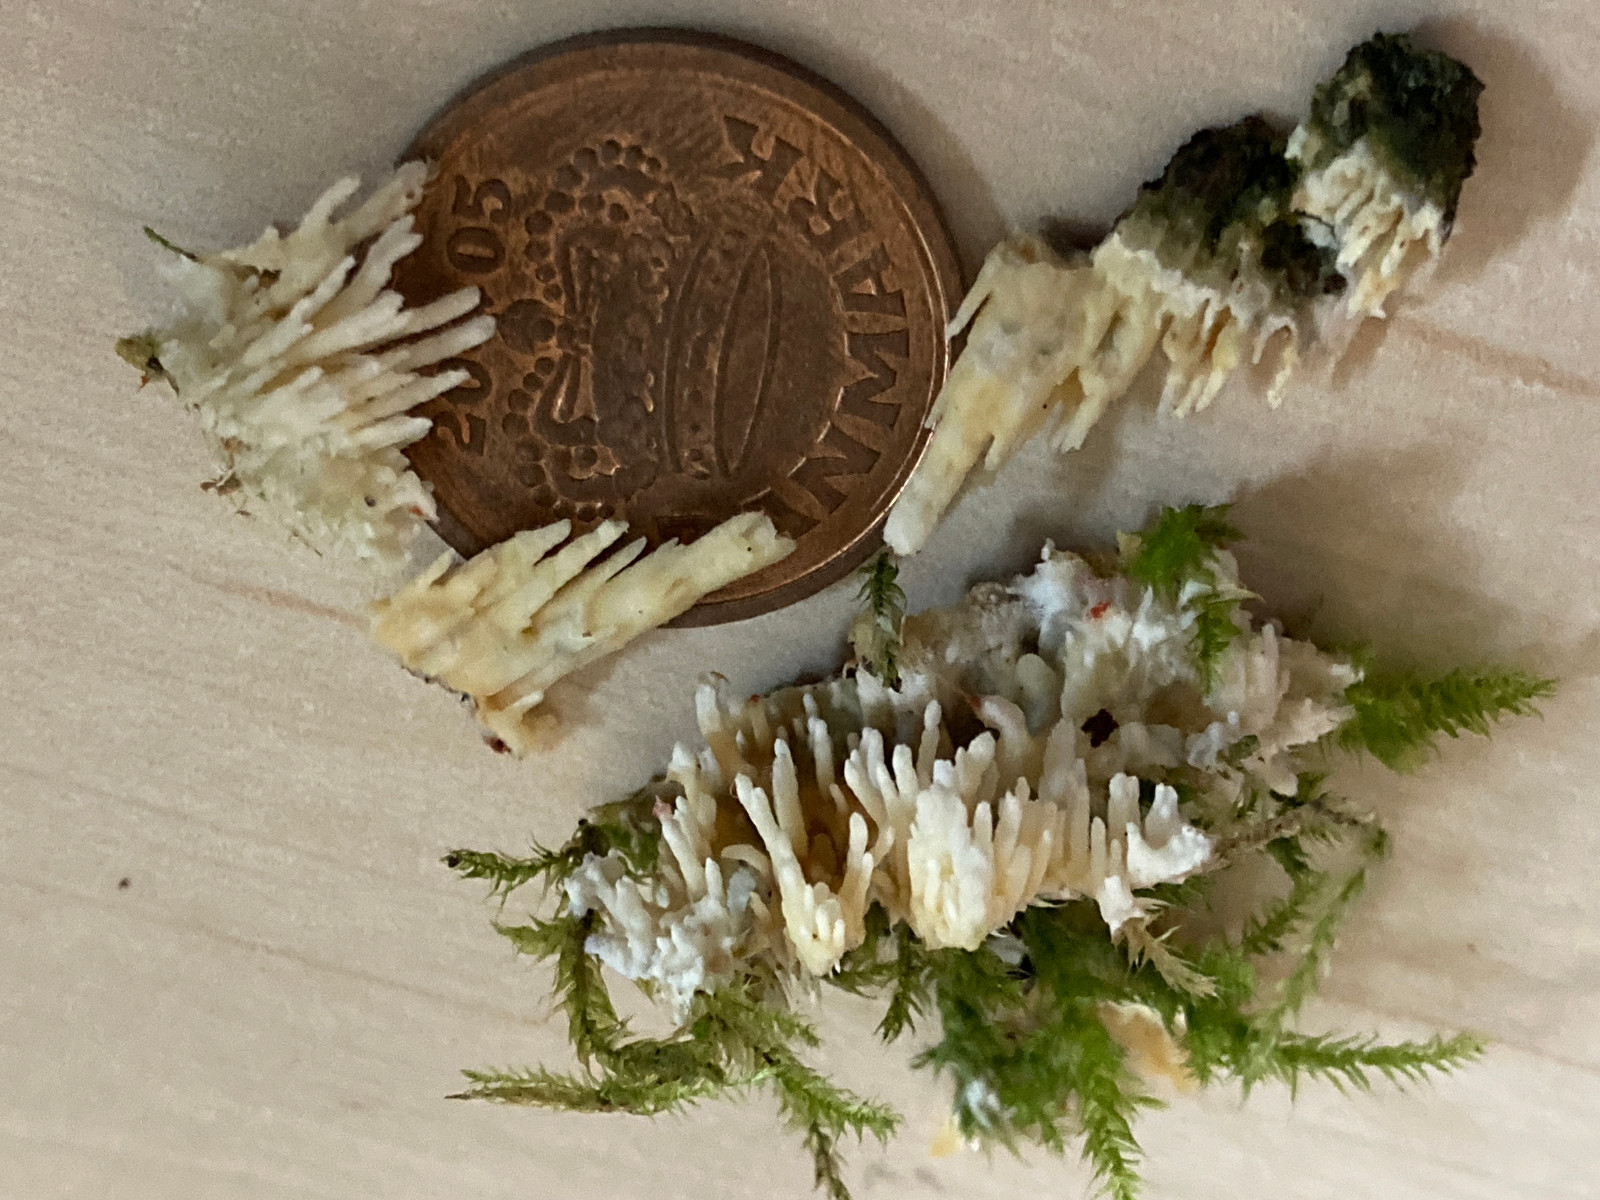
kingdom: Fungi
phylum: Basidiomycota
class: Agaricomycetes
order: Hymenochaetales
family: Schizoporaceae
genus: Xylodon
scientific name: Xylodon radula
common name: grovtandet kalkskind
